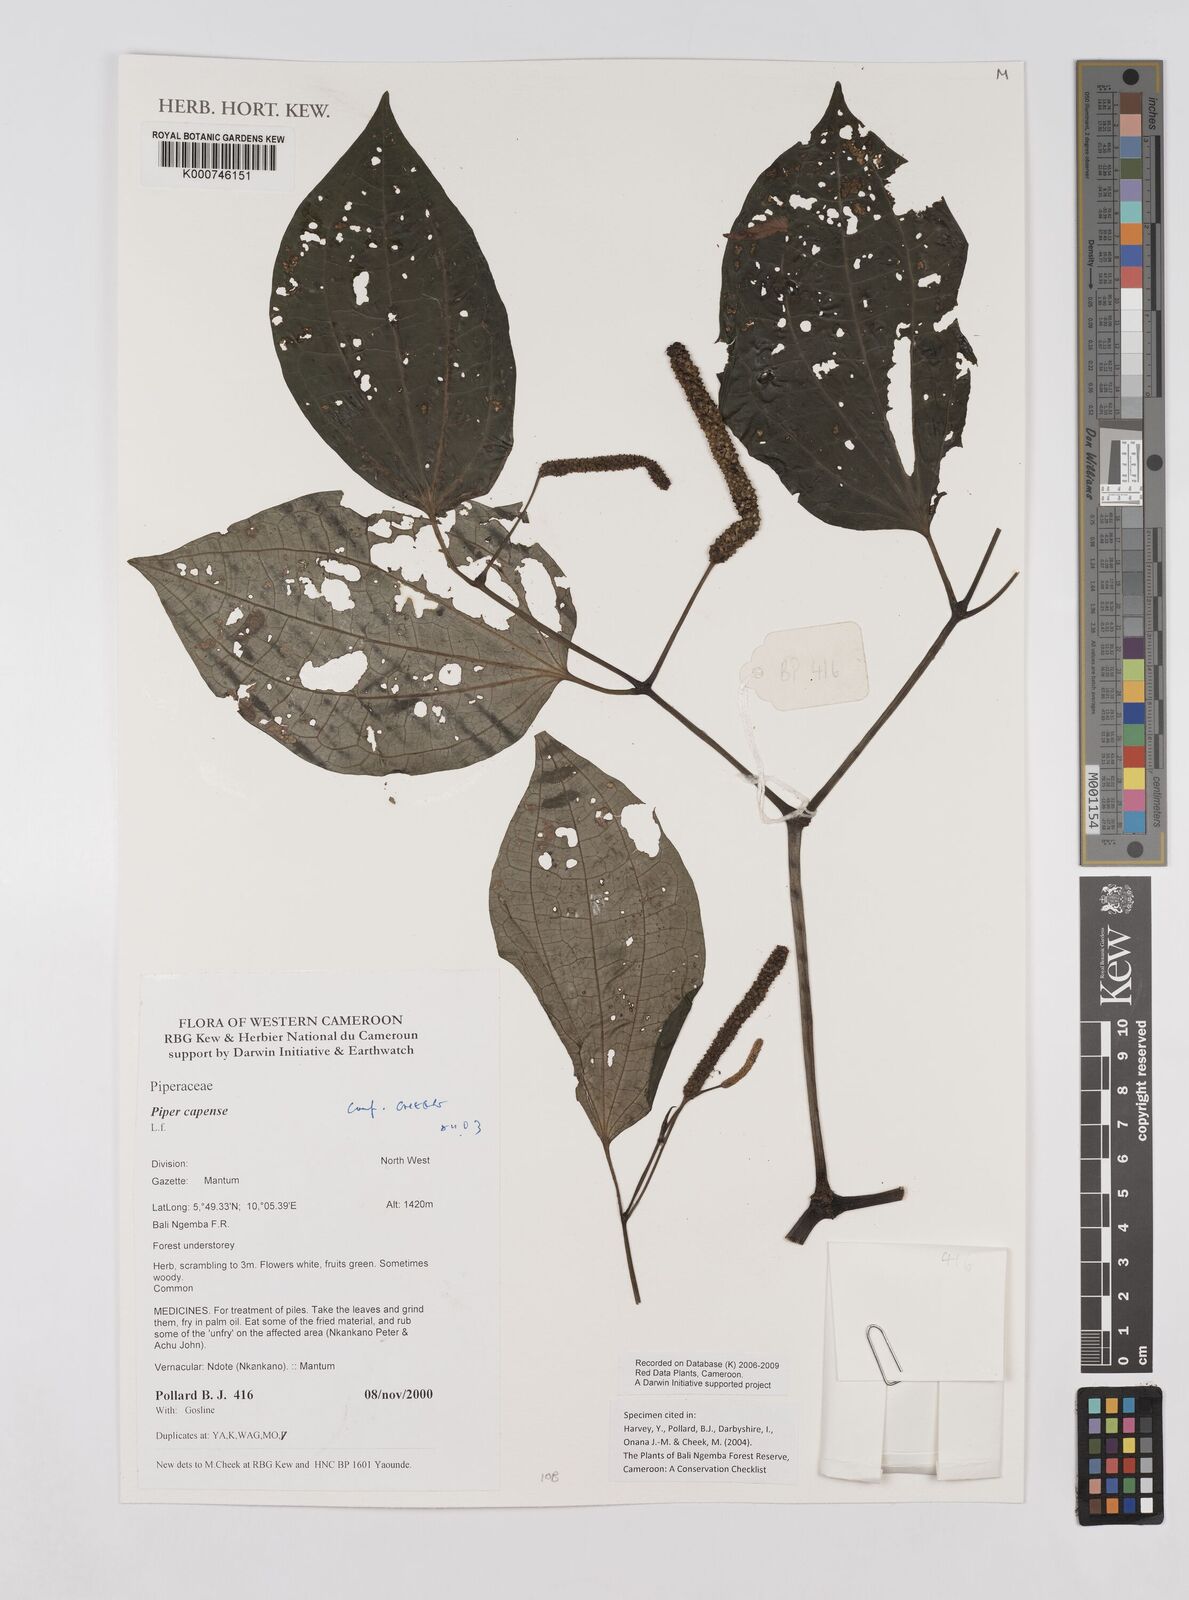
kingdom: Plantae
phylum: Tracheophyta
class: Magnoliopsida
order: Piperales
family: Piperaceae
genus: Piper
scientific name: Piper capense
